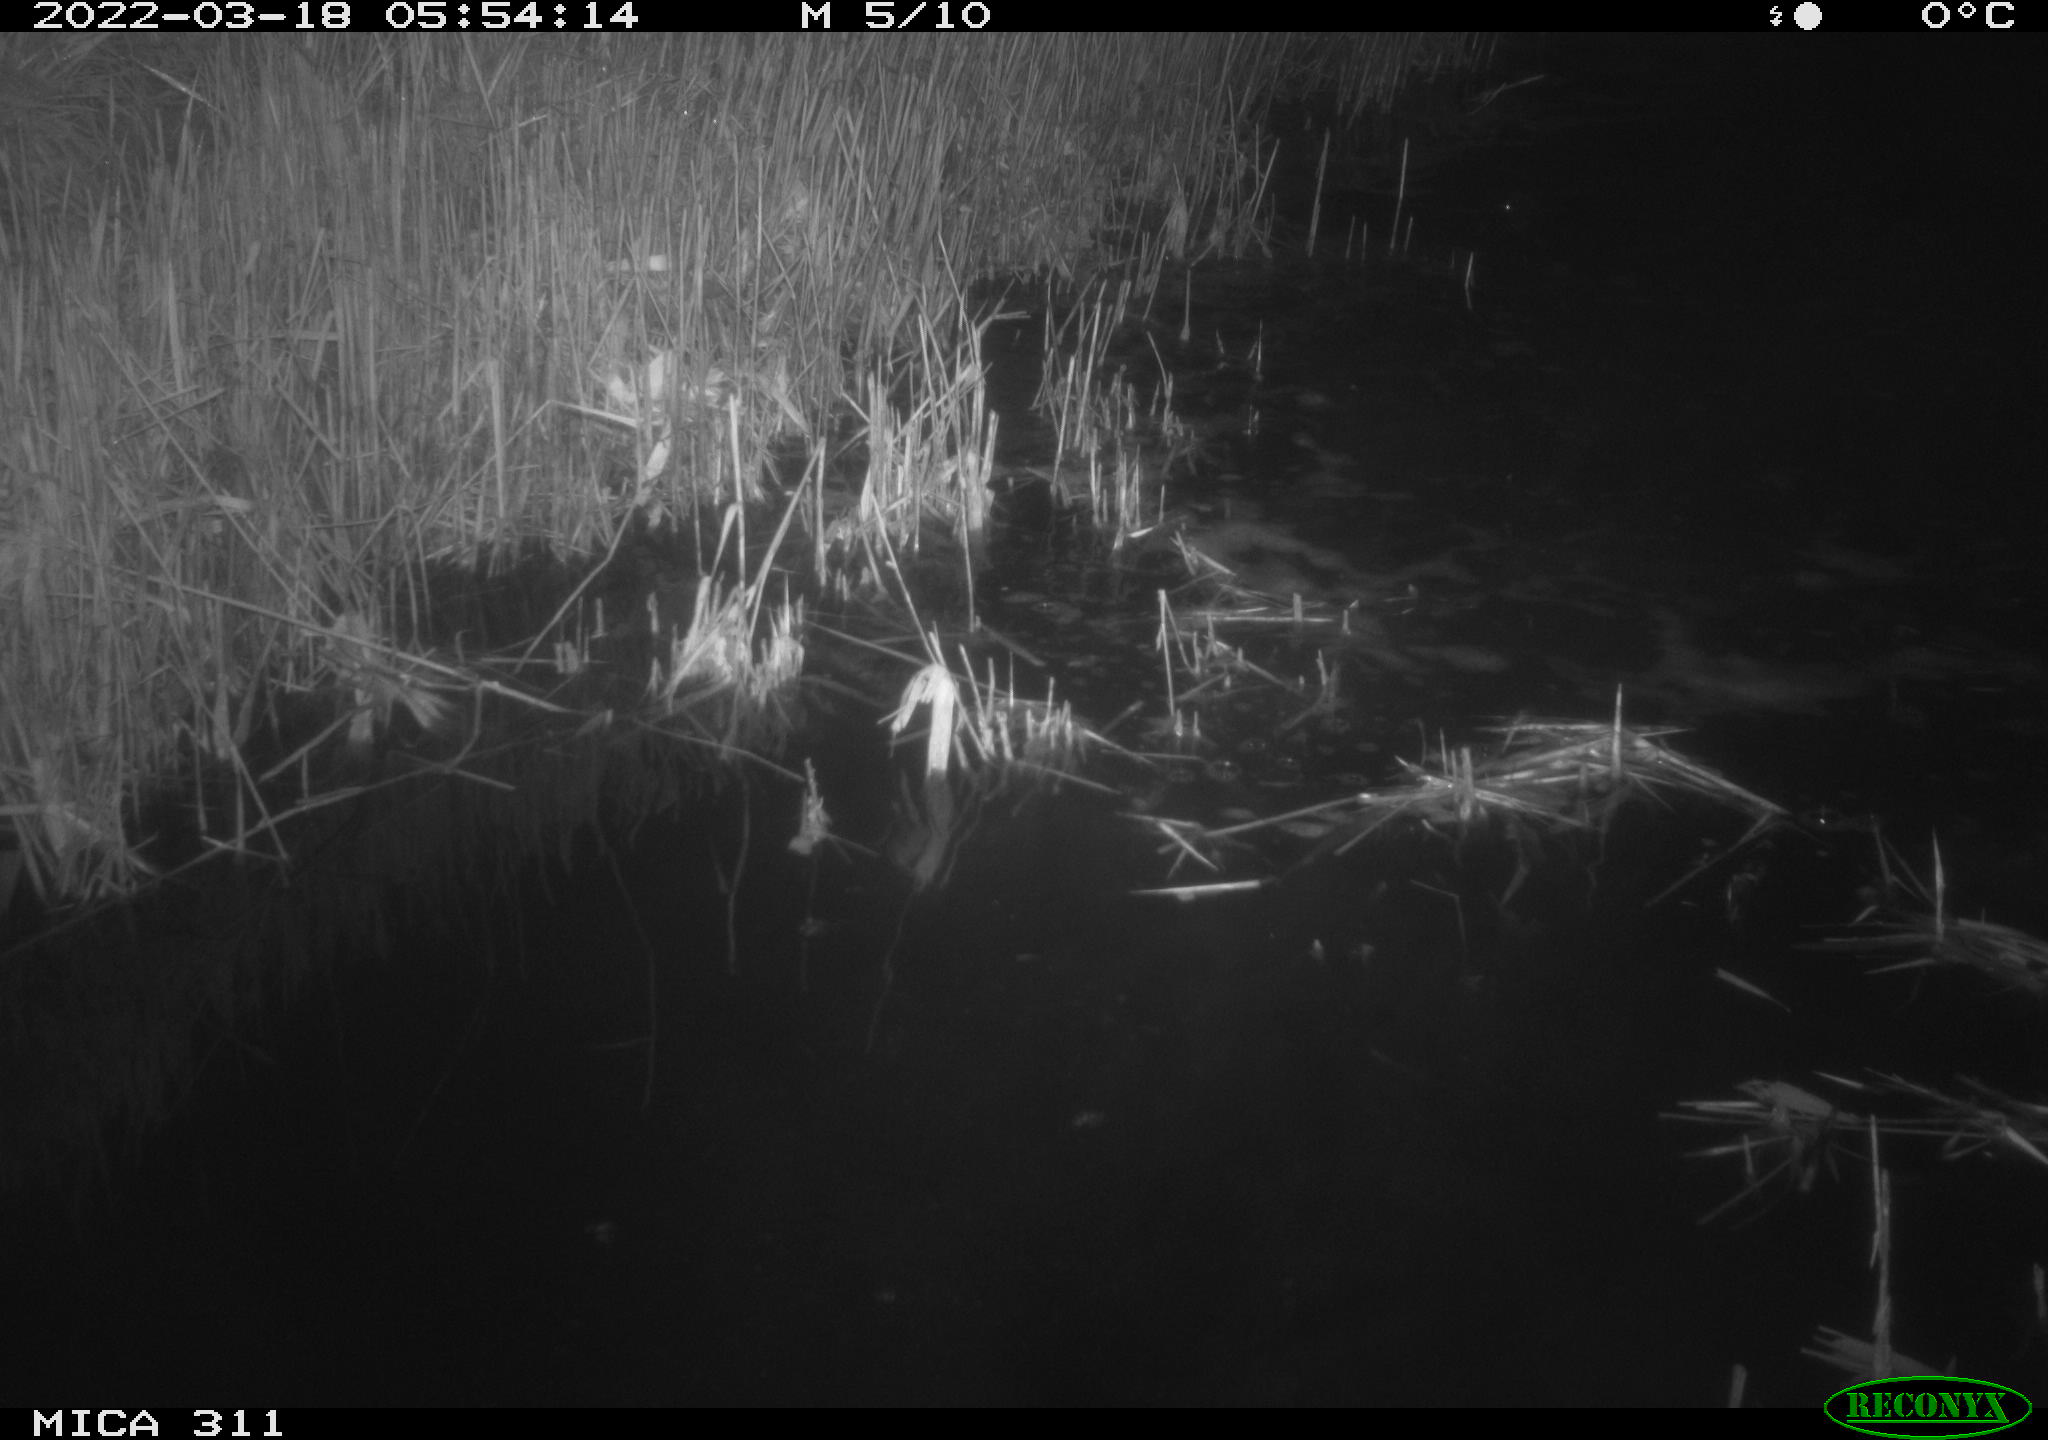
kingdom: Animalia
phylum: Chordata
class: Aves
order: Gruiformes
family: Rallidae
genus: Fulica
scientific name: Fulica atra
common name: Eurasian coot
